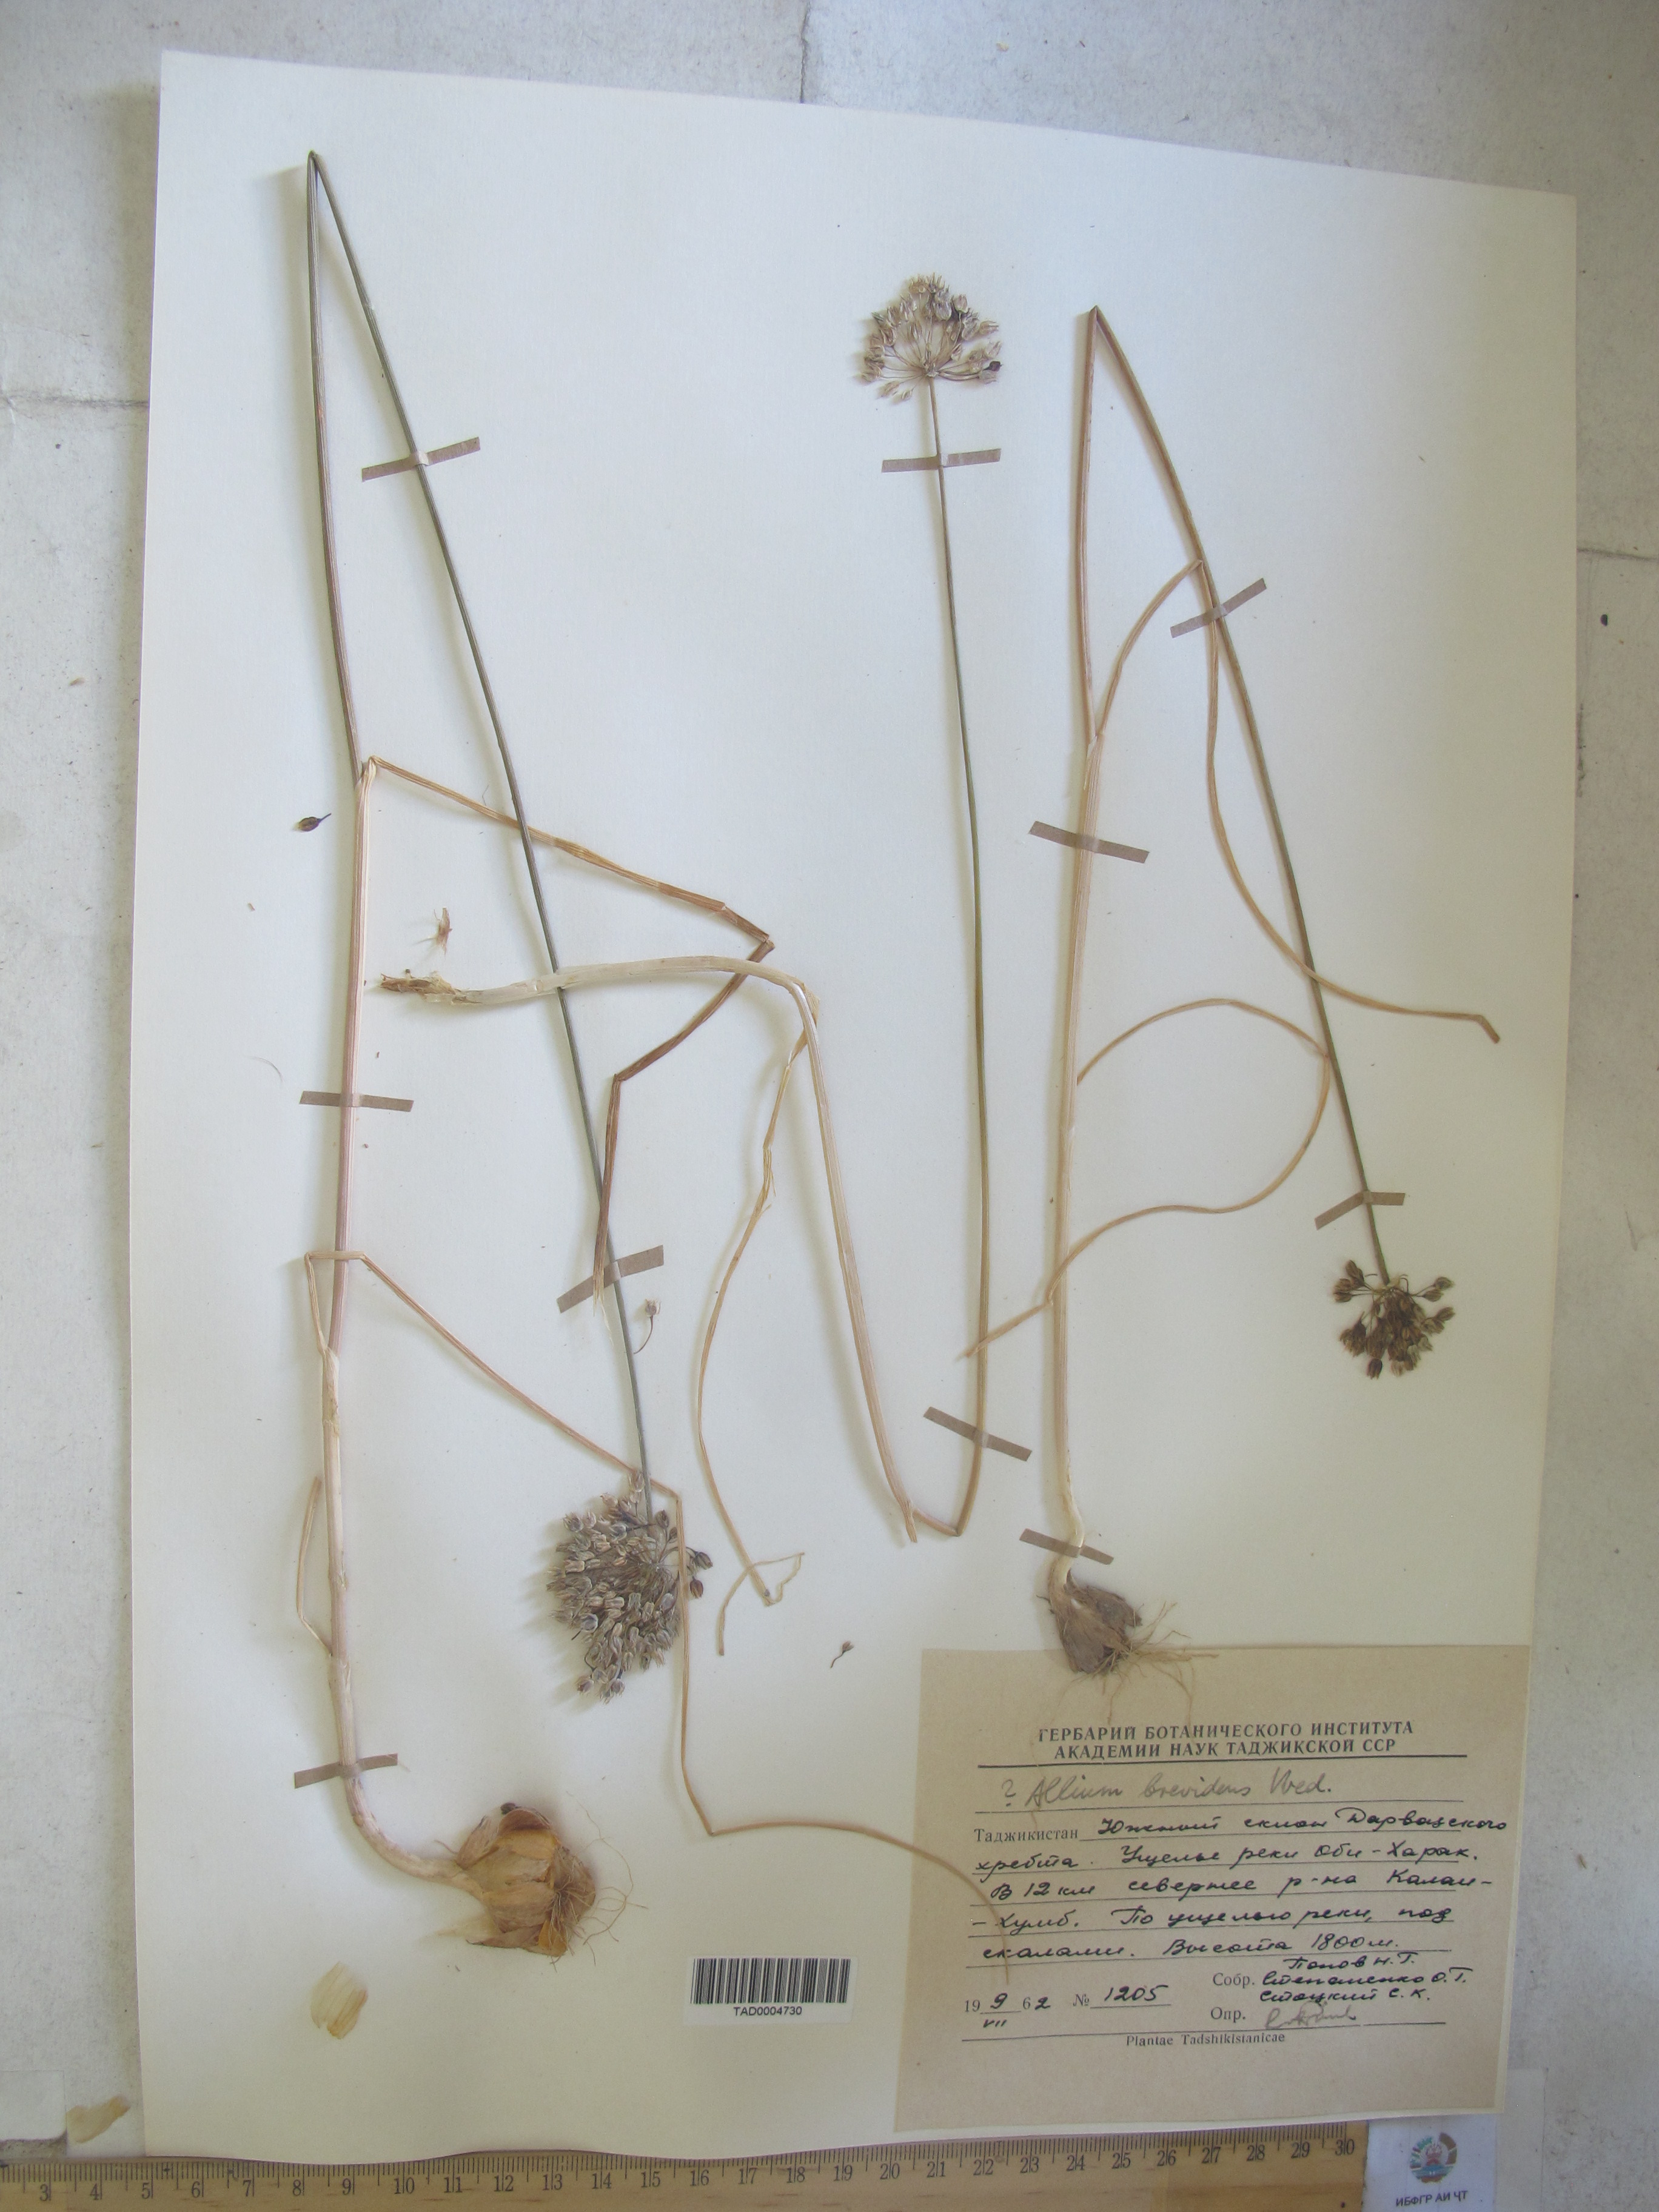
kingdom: Plantae
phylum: Tracheophyta
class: Liliopsida
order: Asparagales
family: Amaryllidaceae
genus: Allium
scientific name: Allium brevidens
